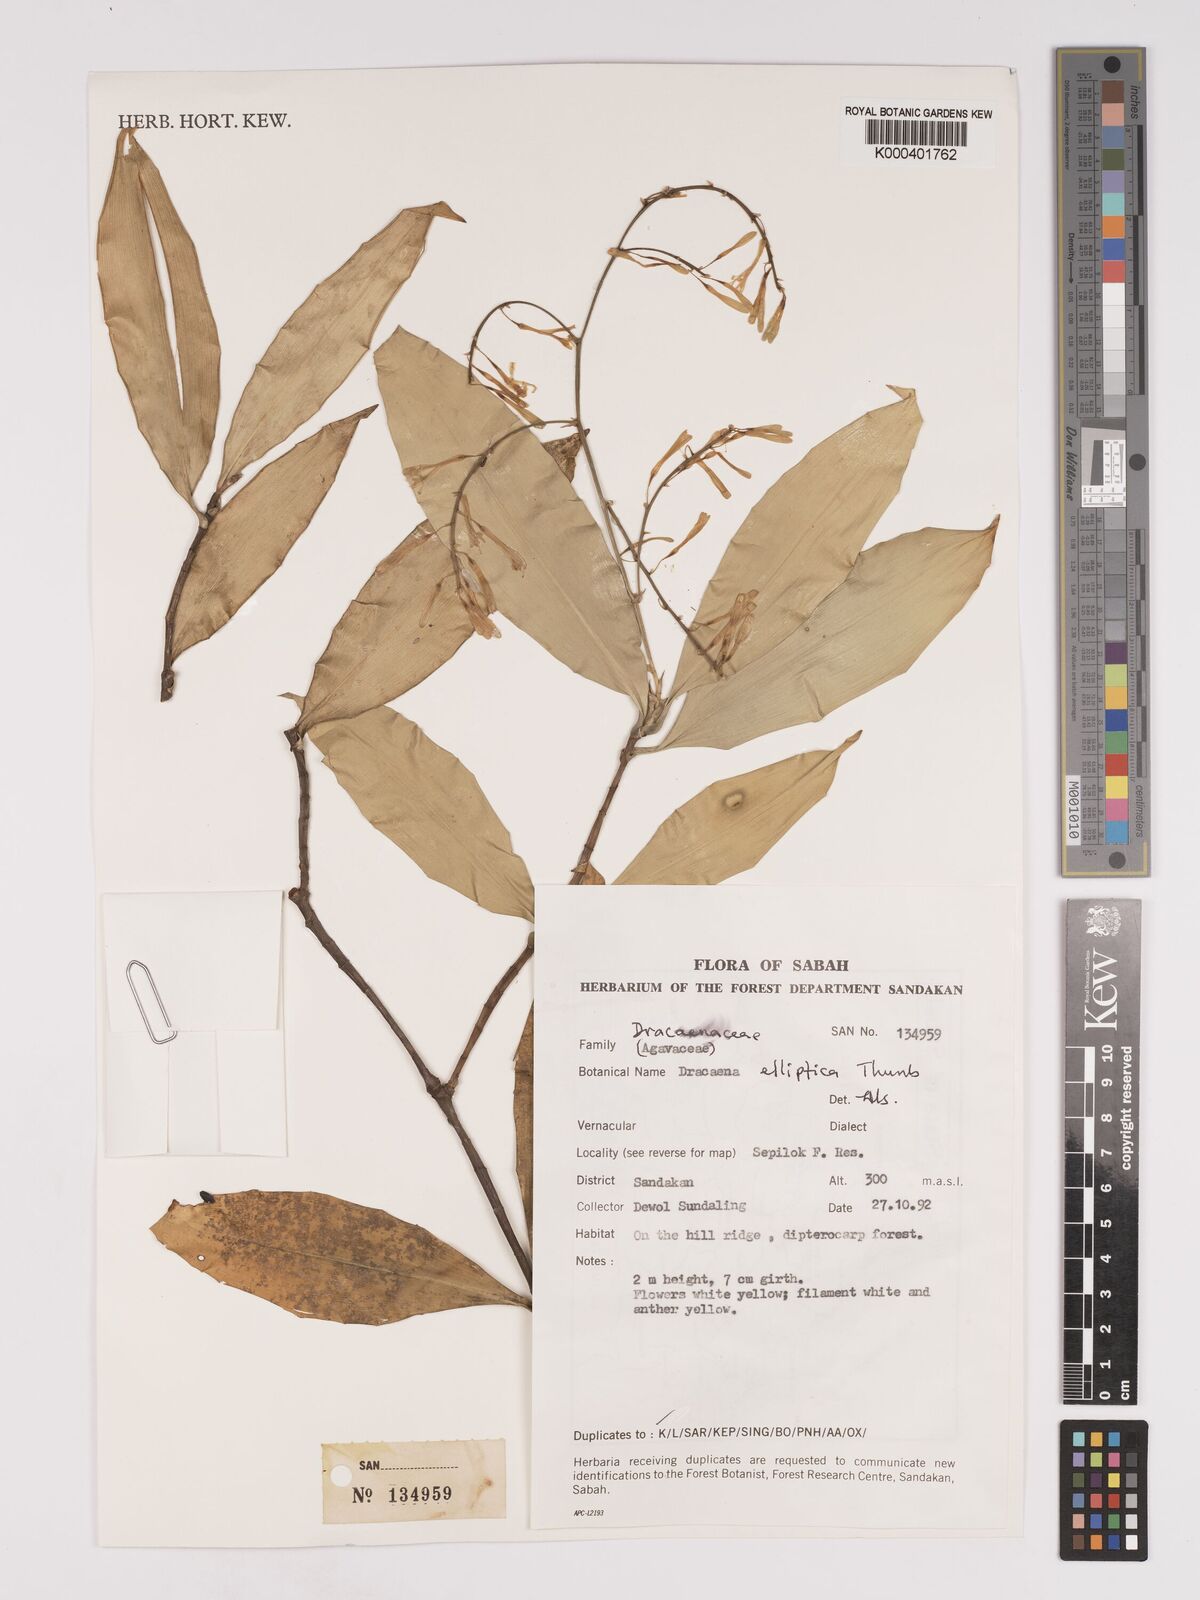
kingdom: Plantae
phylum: Tracheophyta
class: Liliopsida
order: Asparagales
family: Asparagaceae
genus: Dracaena
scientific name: Dracaena elliptica
